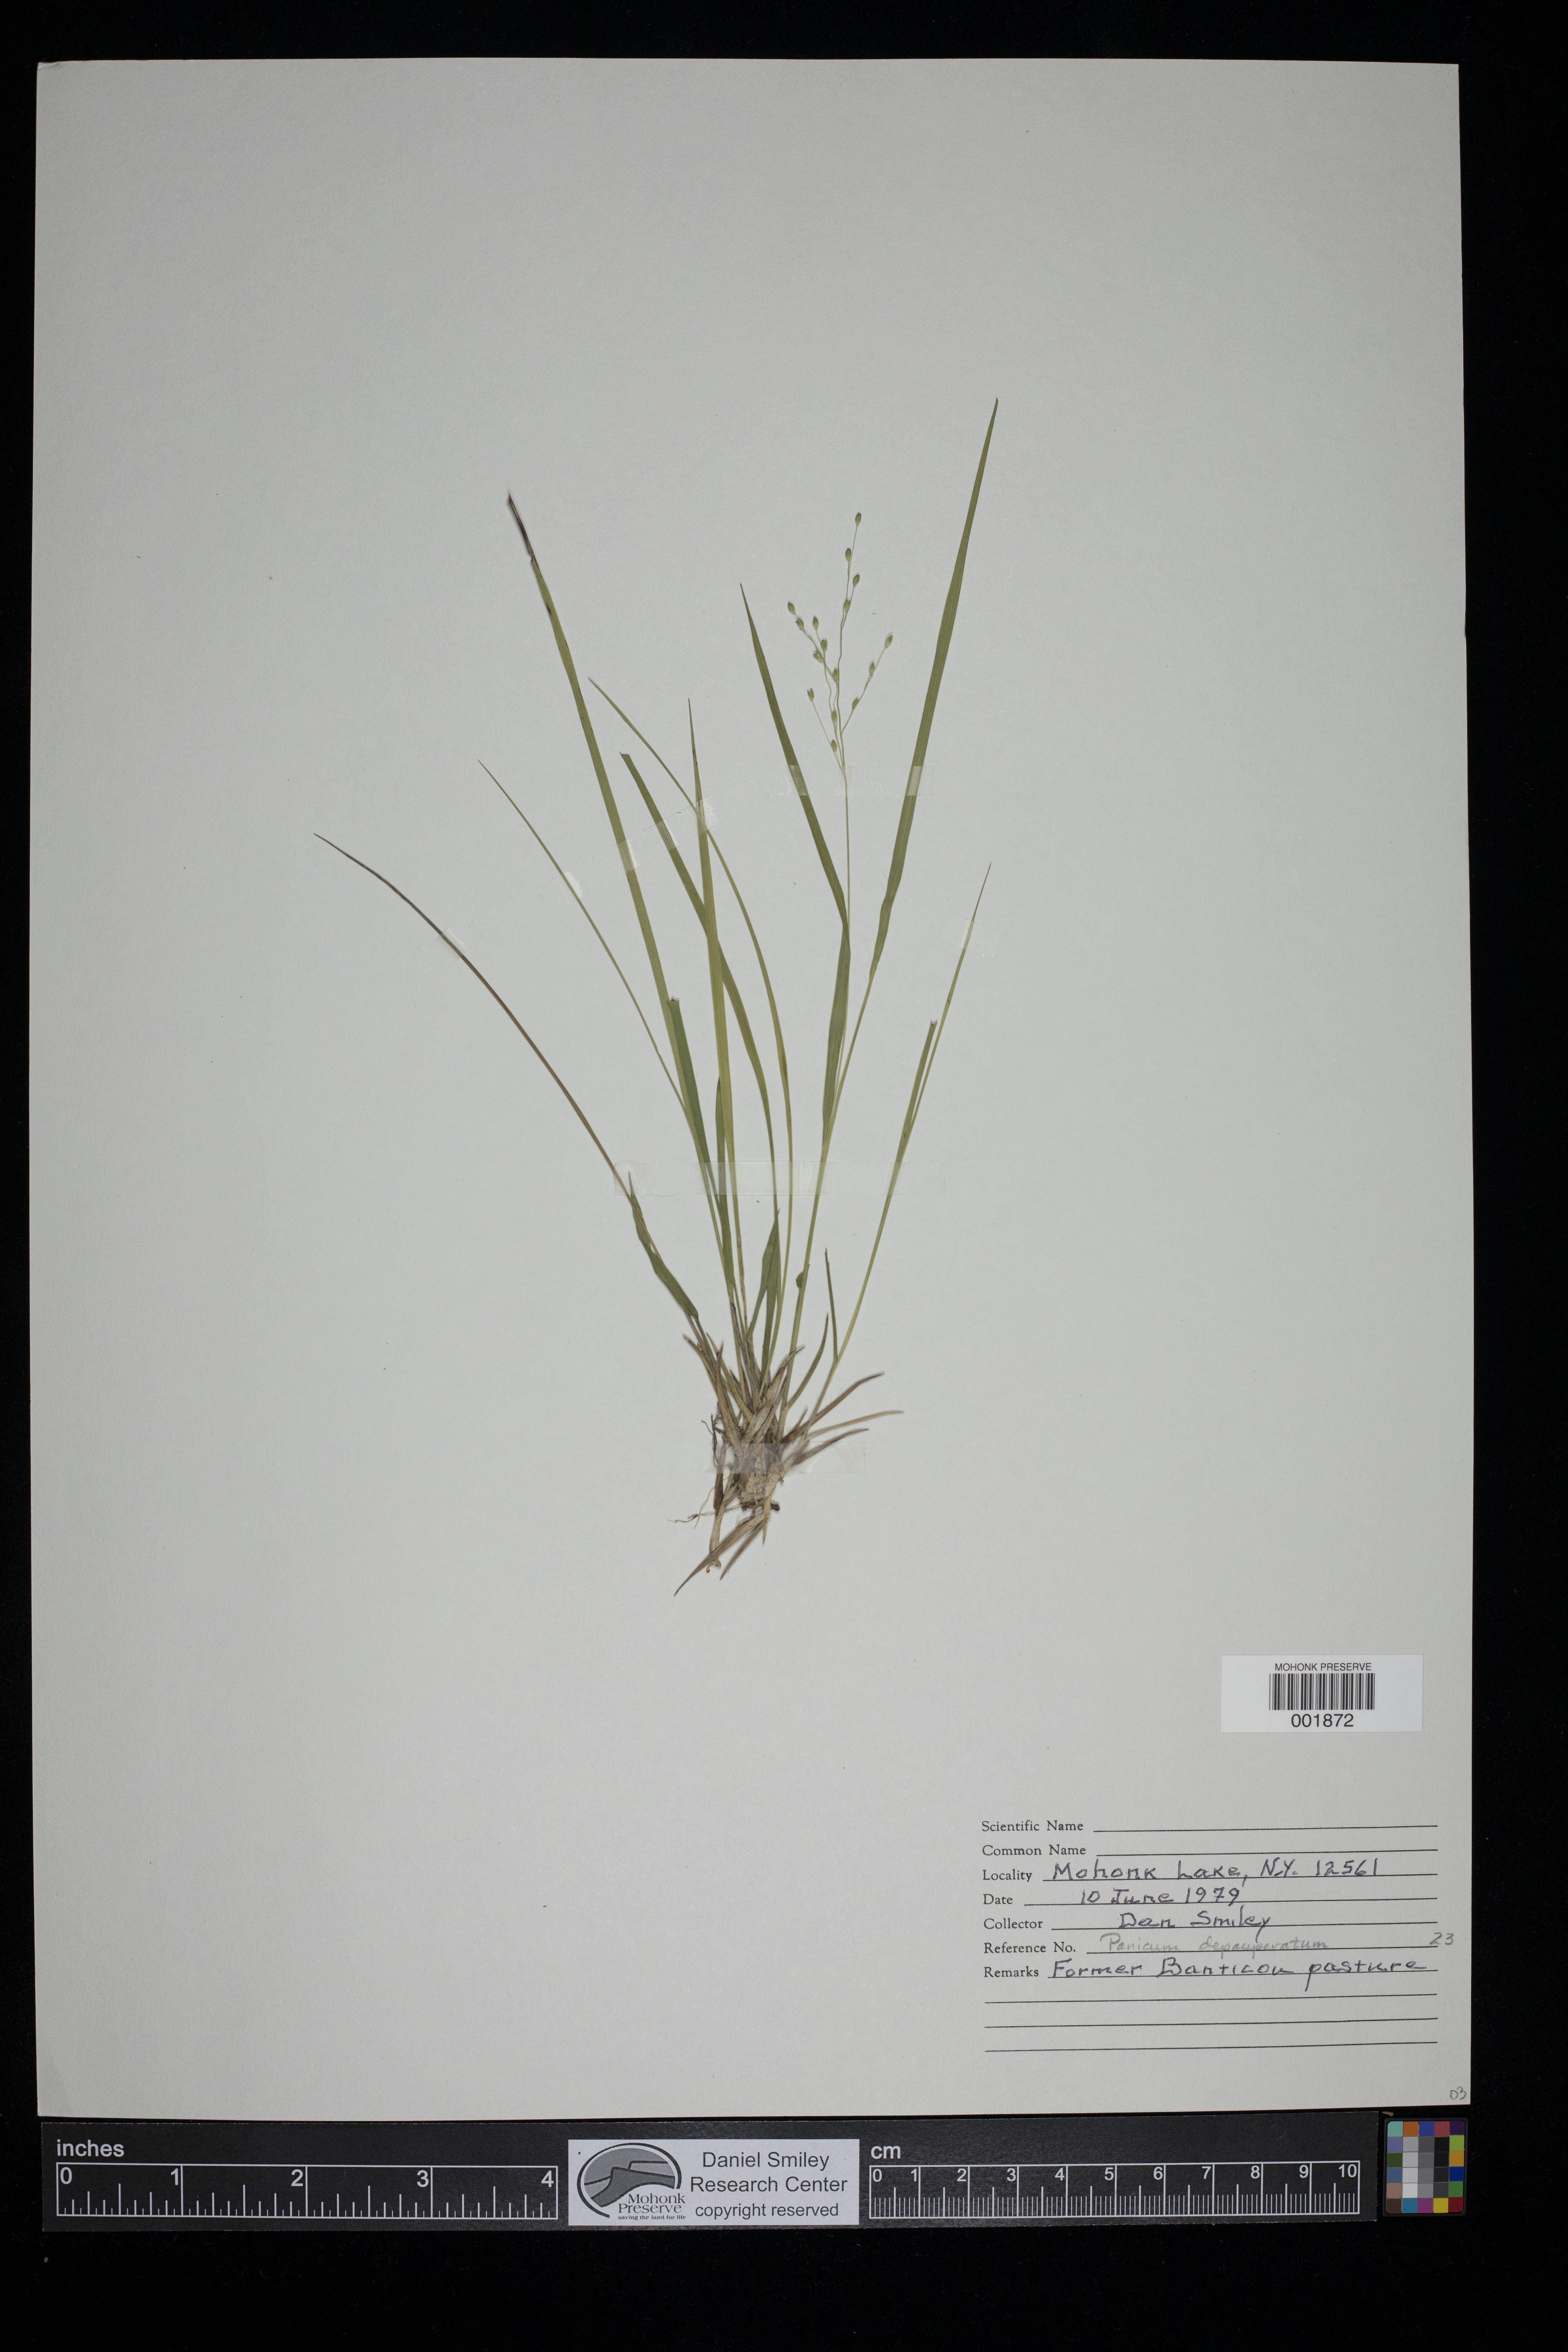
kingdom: Plantae
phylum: Tracheophyta
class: Liliopsida
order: Poales
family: Poaceae
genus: Dichanthelium
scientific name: Dichanthelium depauperatum
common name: Depauperate panicgrass
